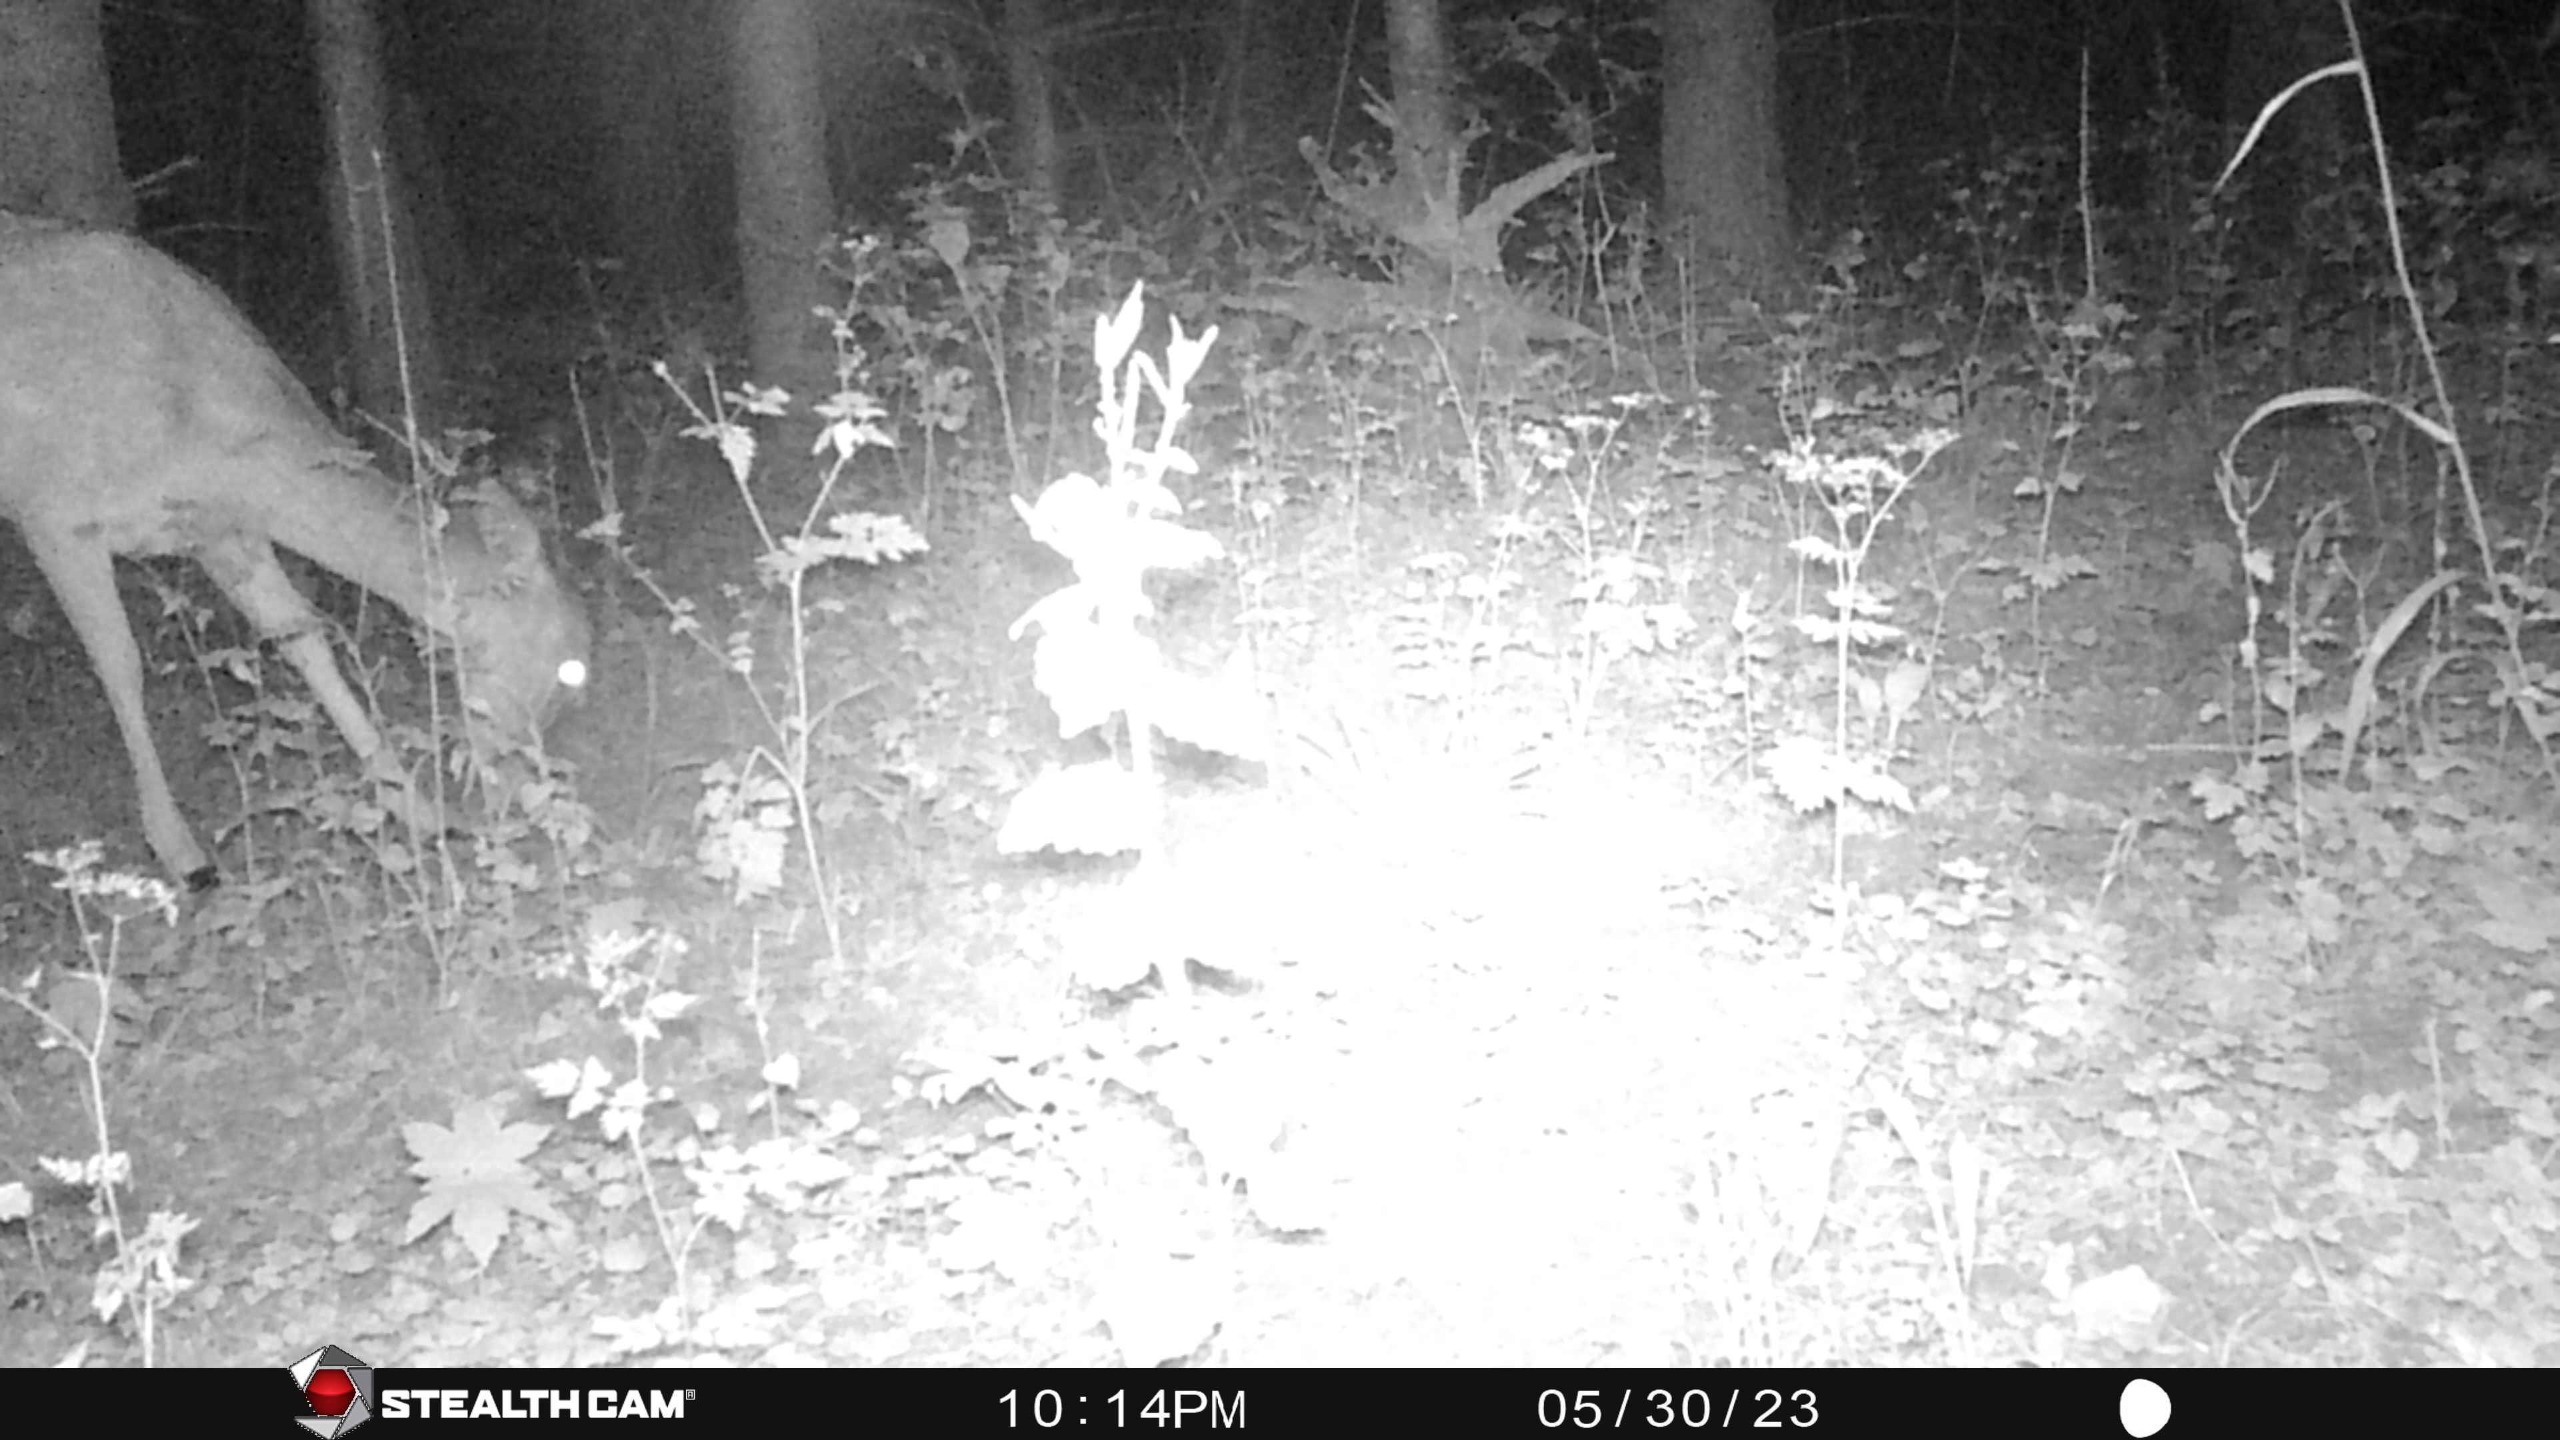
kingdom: Animalia
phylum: Chordata
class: Mammalia
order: Artiodactyla
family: Cervidae
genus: Dama
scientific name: Dama dama
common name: Dådyr
